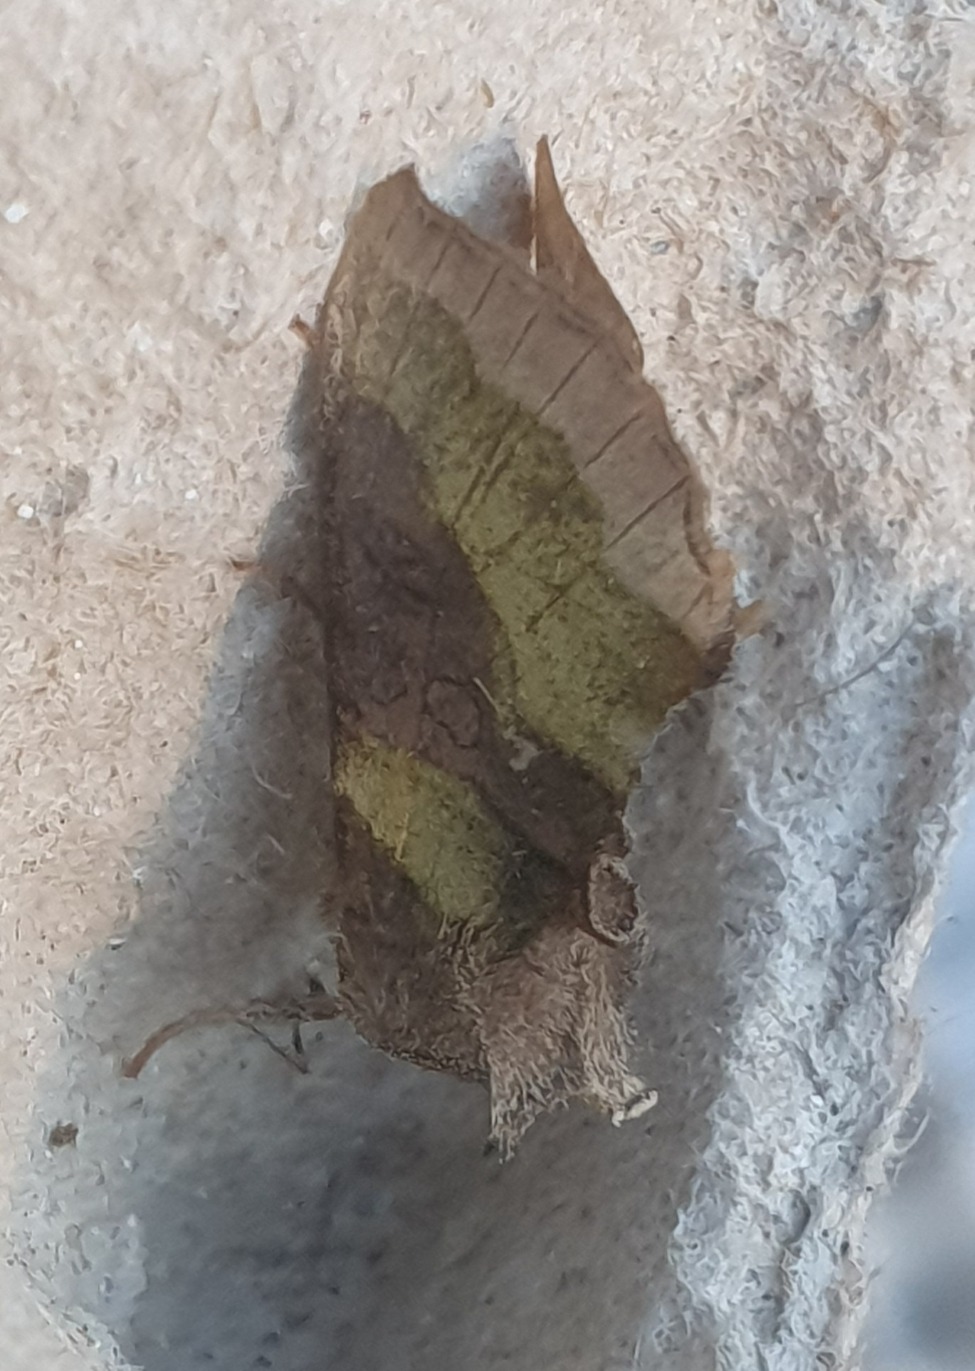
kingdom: Animalia
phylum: Arthropoda
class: Insecta
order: Lepidoptera
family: Noctuidae
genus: Diachrysia
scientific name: Diachrysia chrysitis
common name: Messingugle
